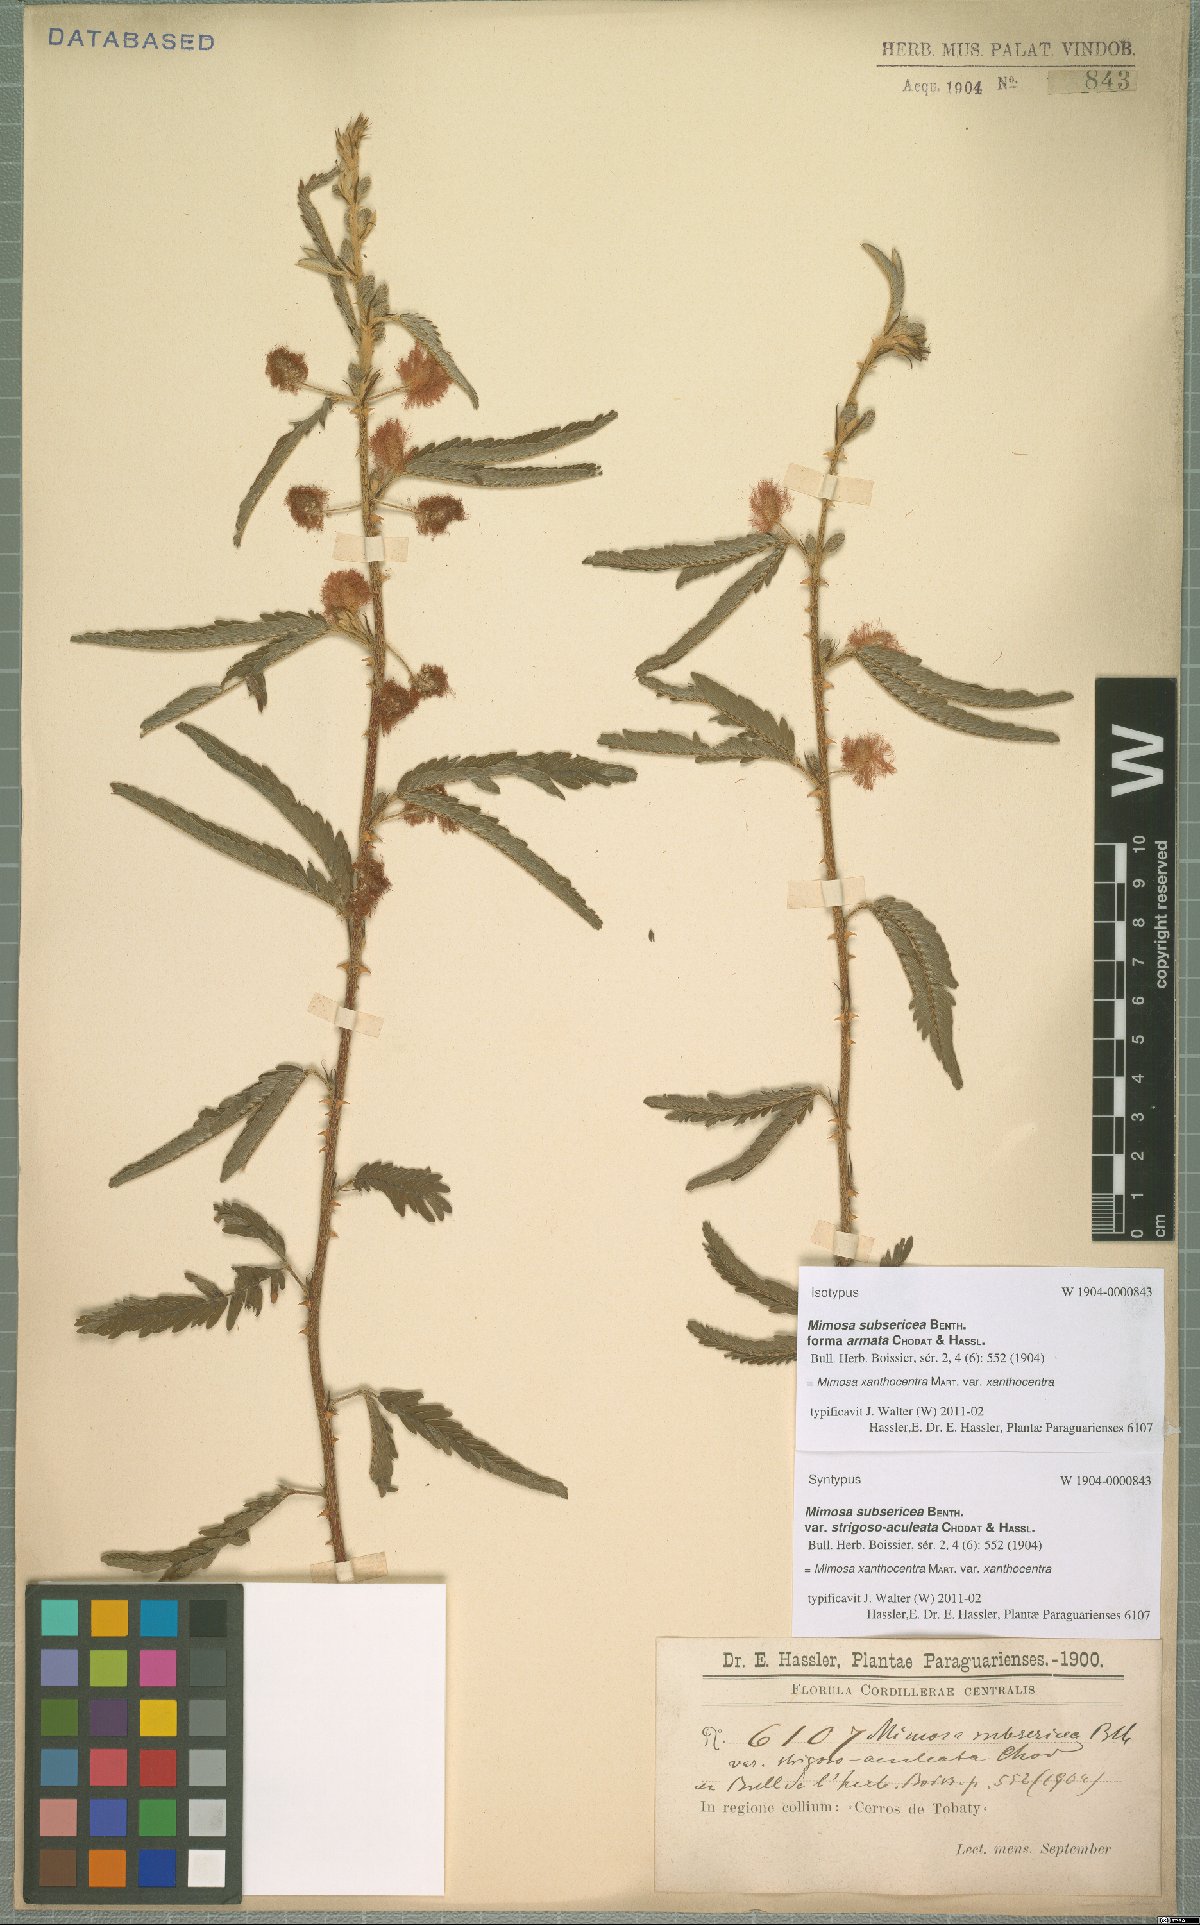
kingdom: Plantae
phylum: Tracheophyta
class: Magnoliopsida
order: Fabales
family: Fabaceae
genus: Mimosa
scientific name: Mimosa xanthocentra
